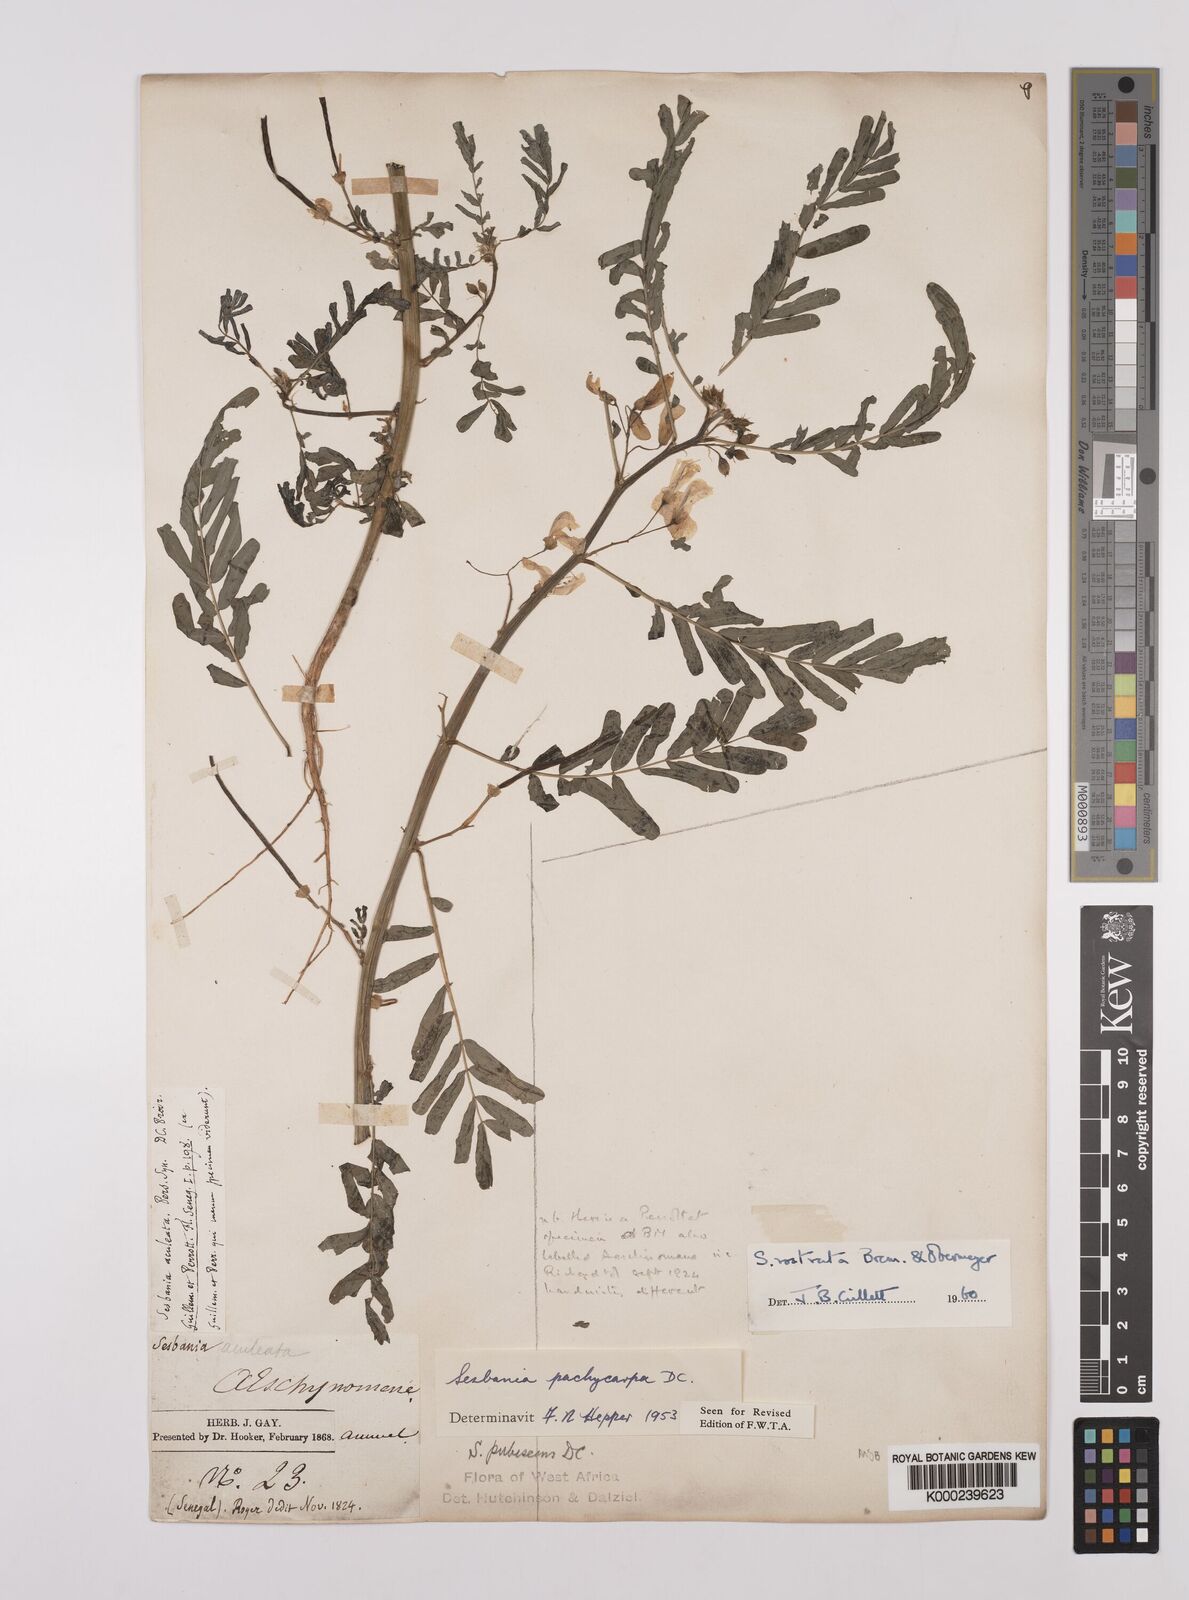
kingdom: Plantae
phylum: Tracheophyta
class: Magnoliopsida
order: Fabales
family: Fabaceae
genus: Sesbania
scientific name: Sesbania rostrata
